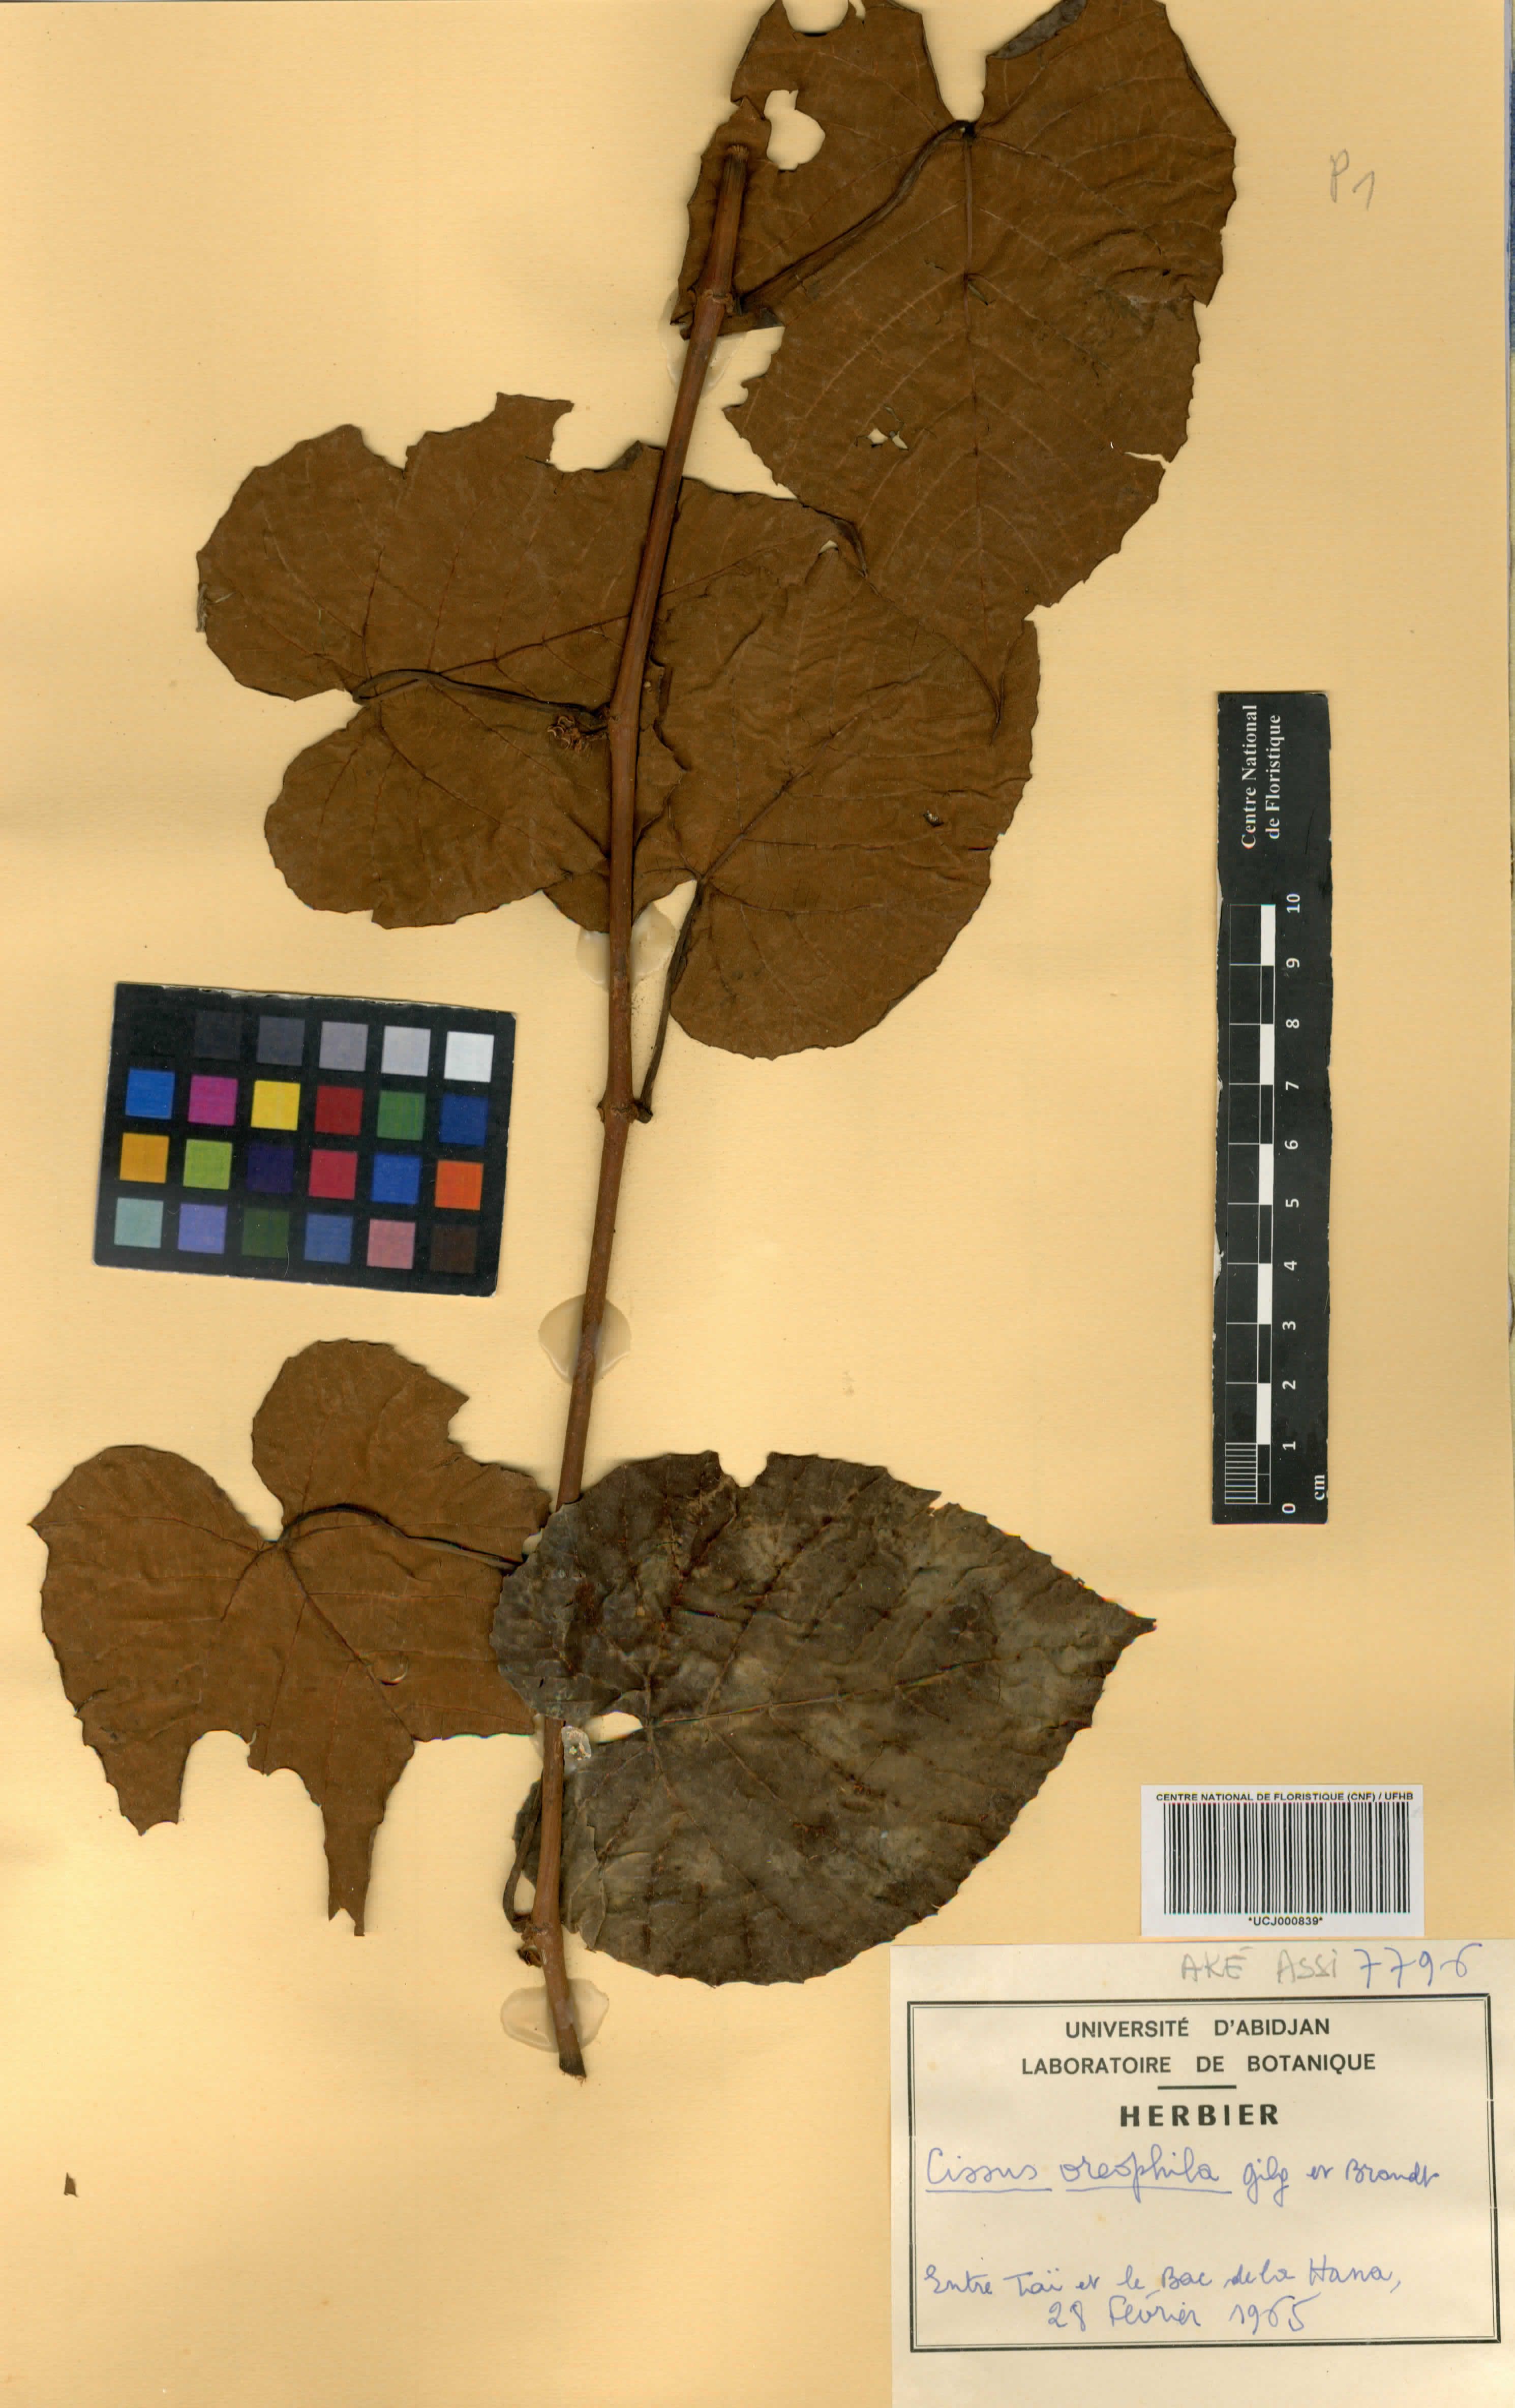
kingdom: Plantae
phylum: Tracheophyta
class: Magnoliopsida
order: Vitales
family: Vitaceae
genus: Cissus
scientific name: Cissus oreophila
